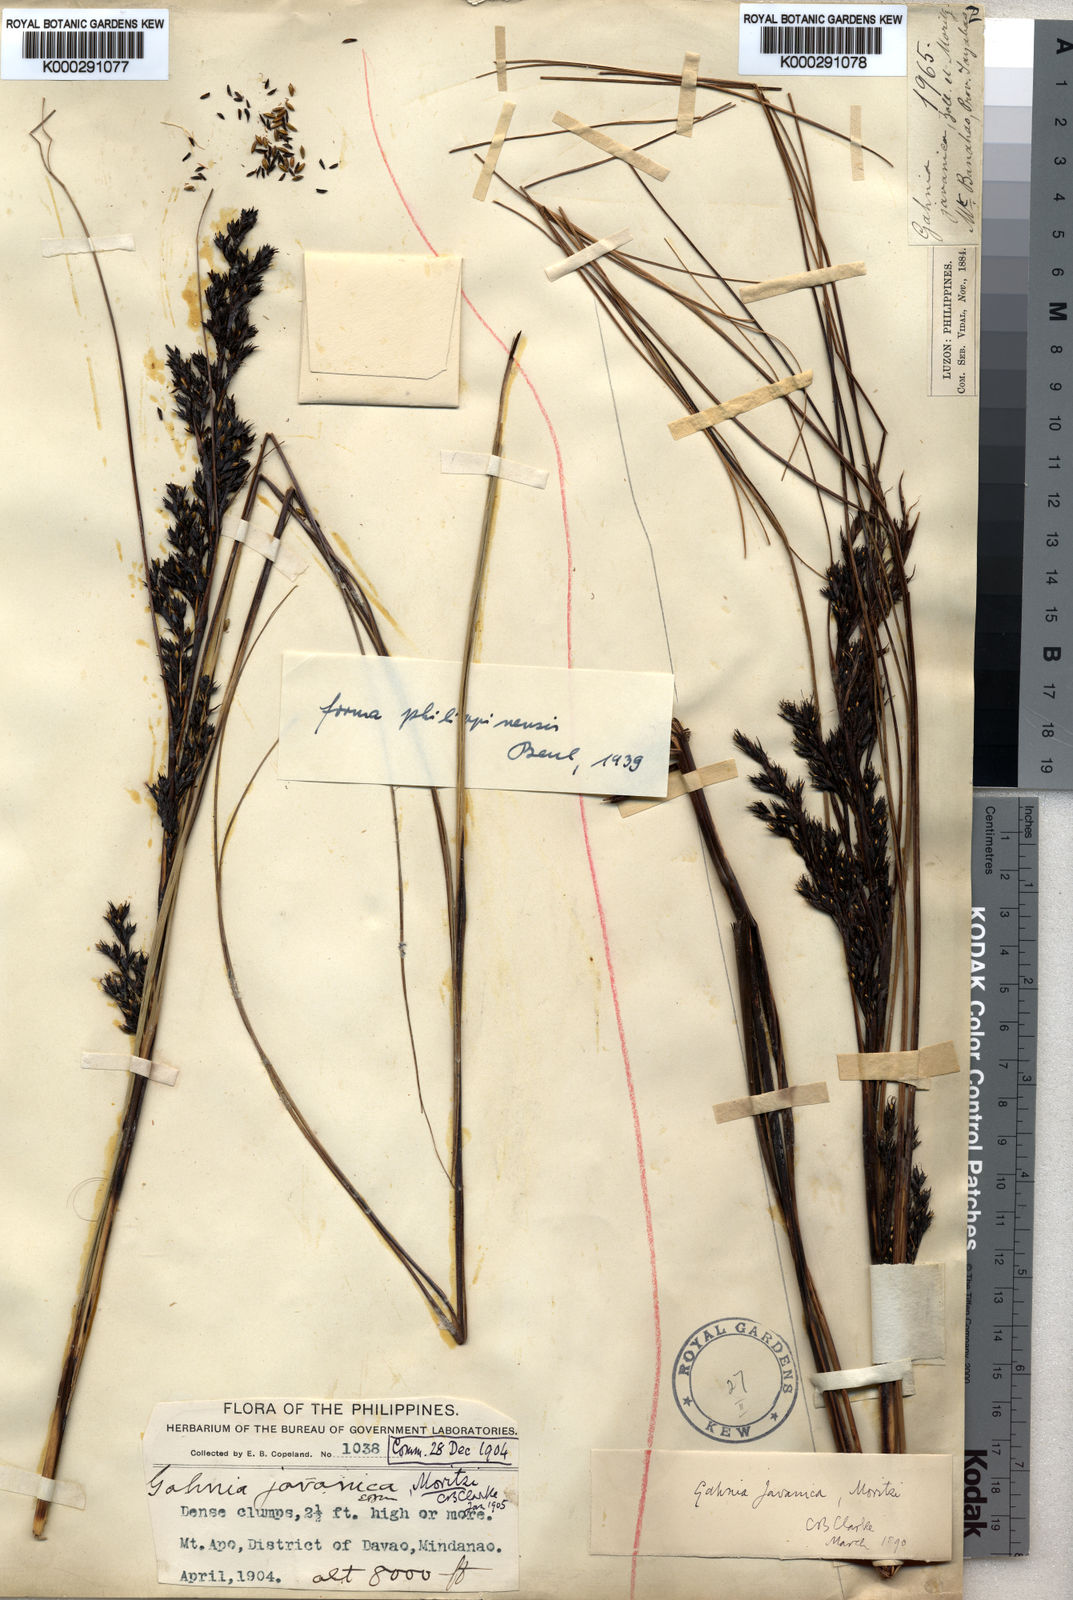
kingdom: Plantae
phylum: Tracheophyta
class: Liliopsida
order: Poales
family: Cyperaceae
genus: Gahnia
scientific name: Gahnia javanica
